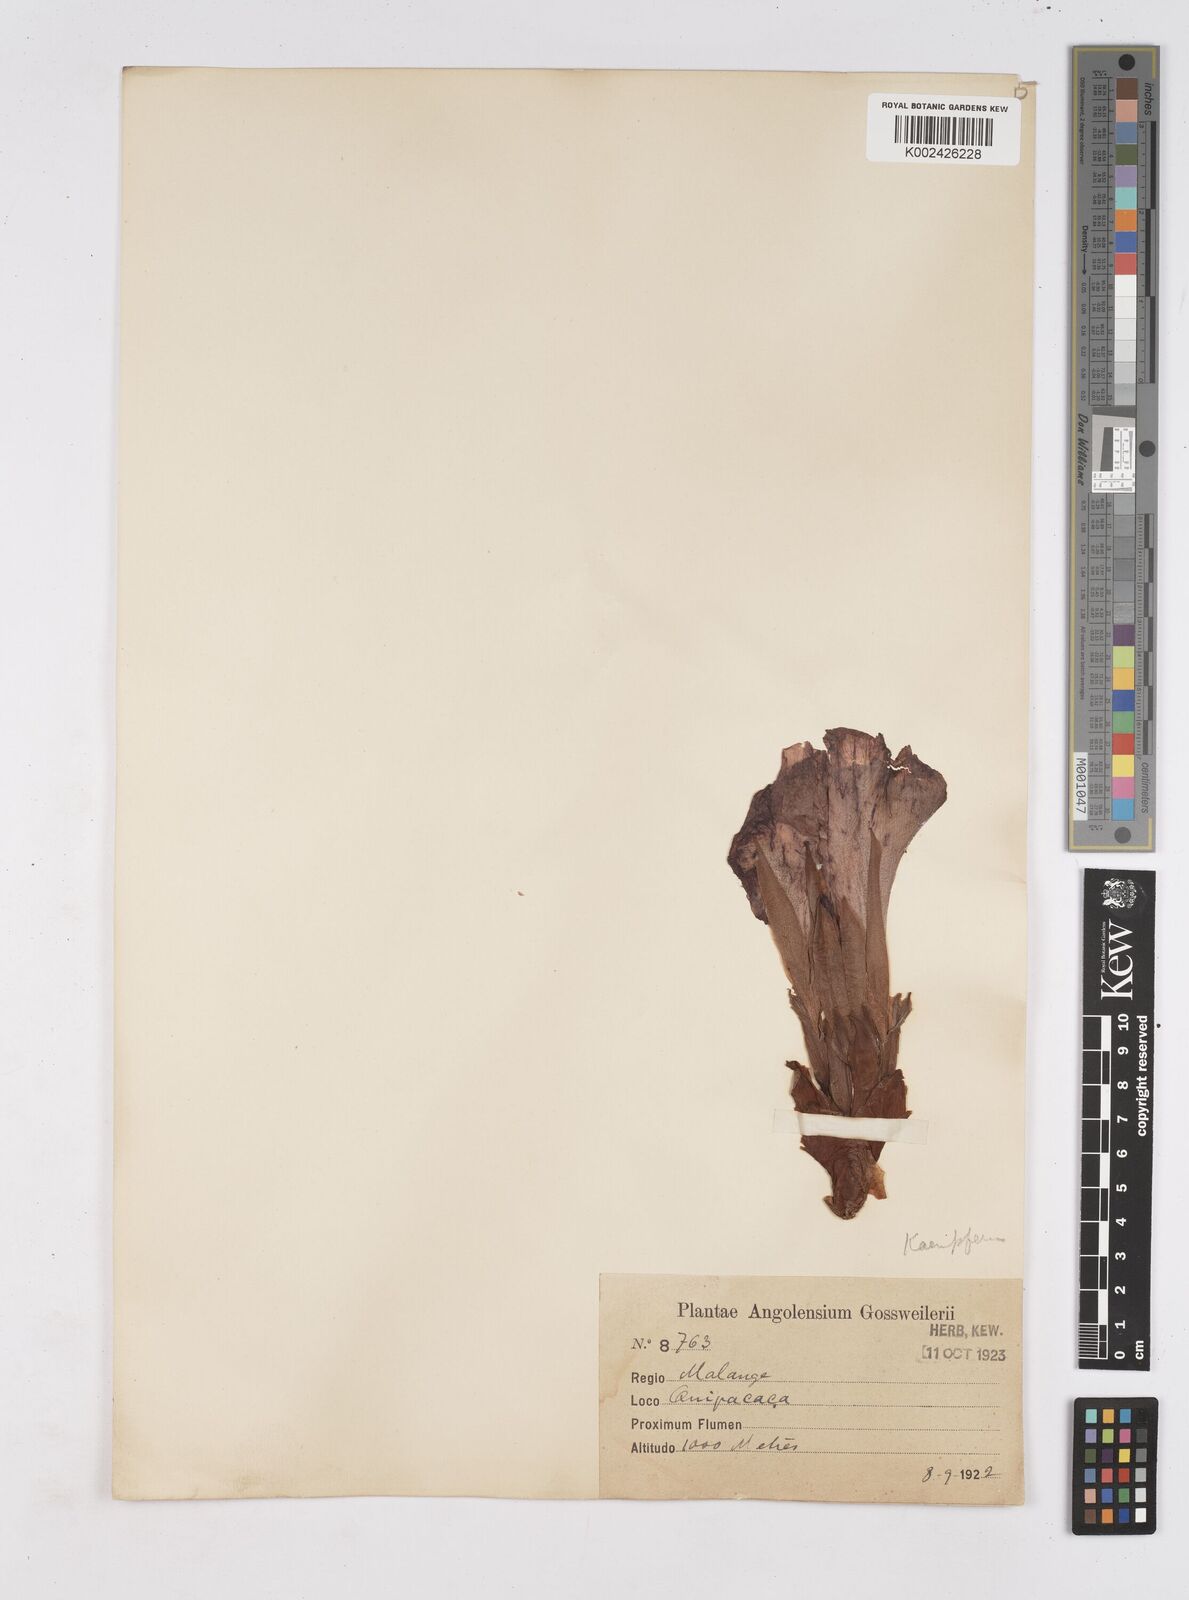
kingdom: Plantae
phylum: Tracheophyta
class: Liliopsida
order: Zingiberales
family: Zingiberaceae
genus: Siphonochilus
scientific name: Siphonochilus
